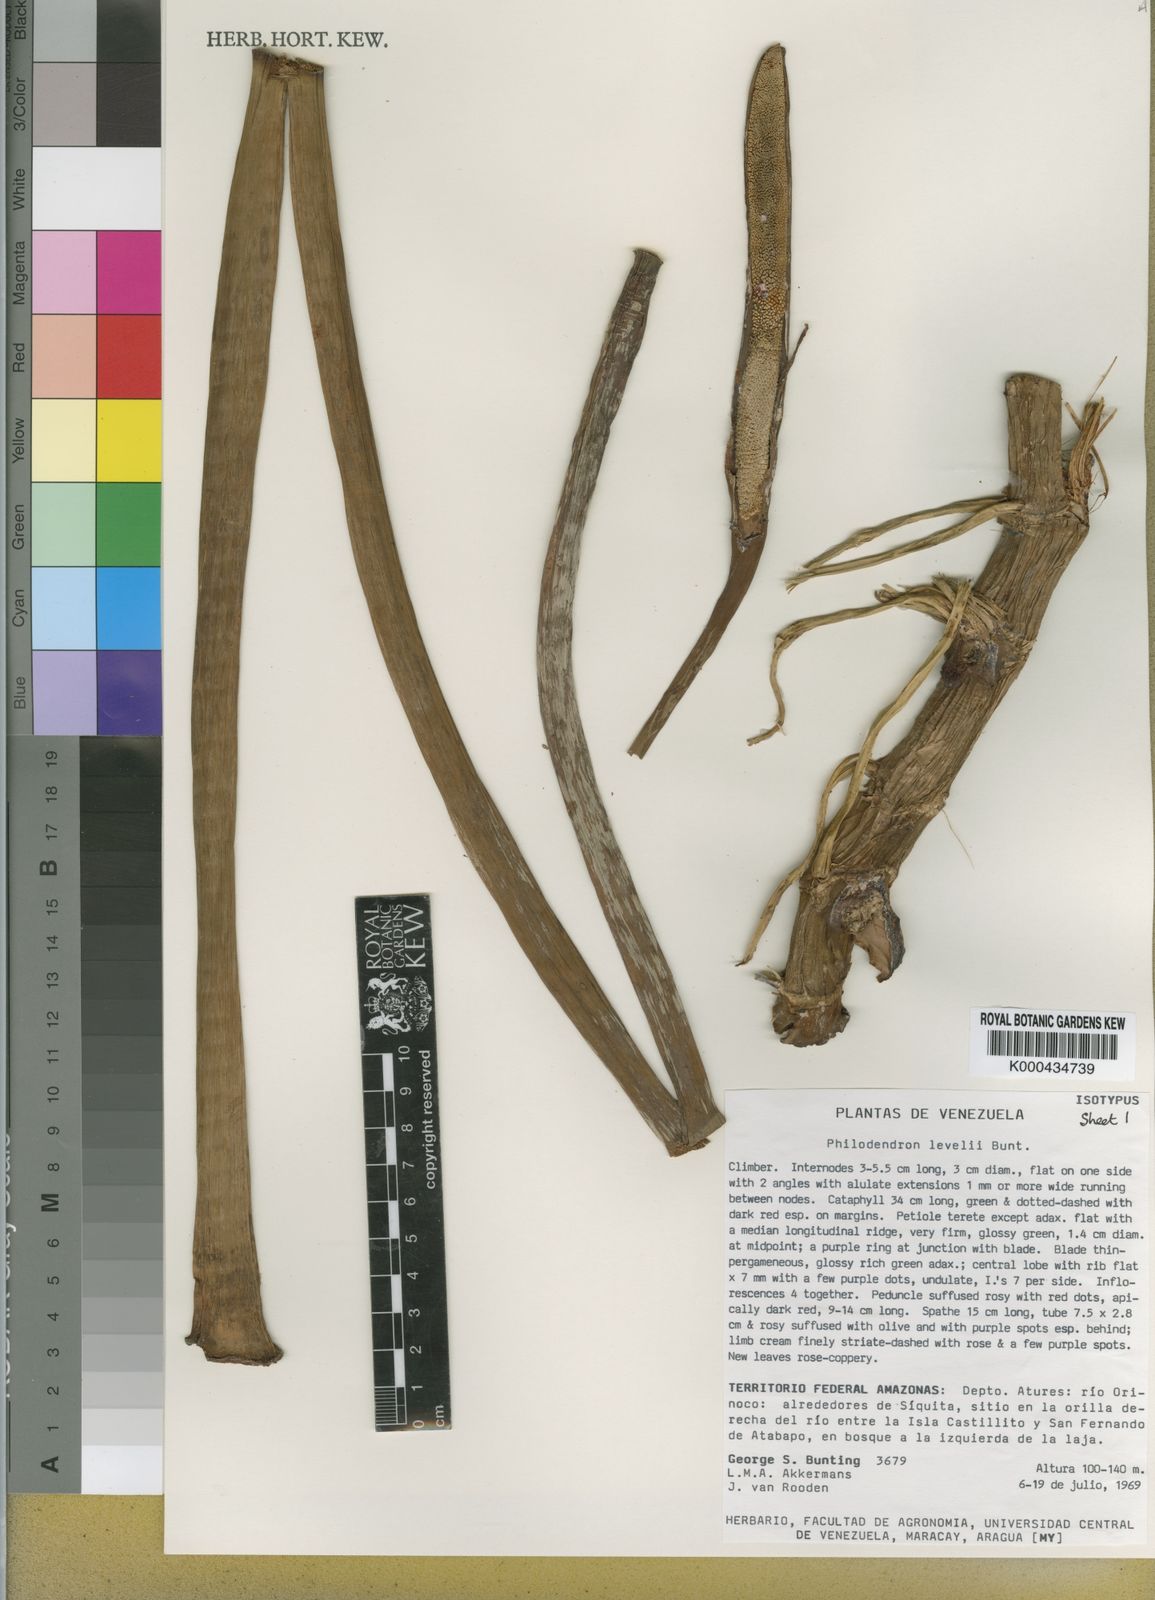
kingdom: Plantae
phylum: Tracheophyta
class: Liliopsida
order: Alismatales
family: Araceae
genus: Philodendron
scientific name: Philodendron barrosoanum
